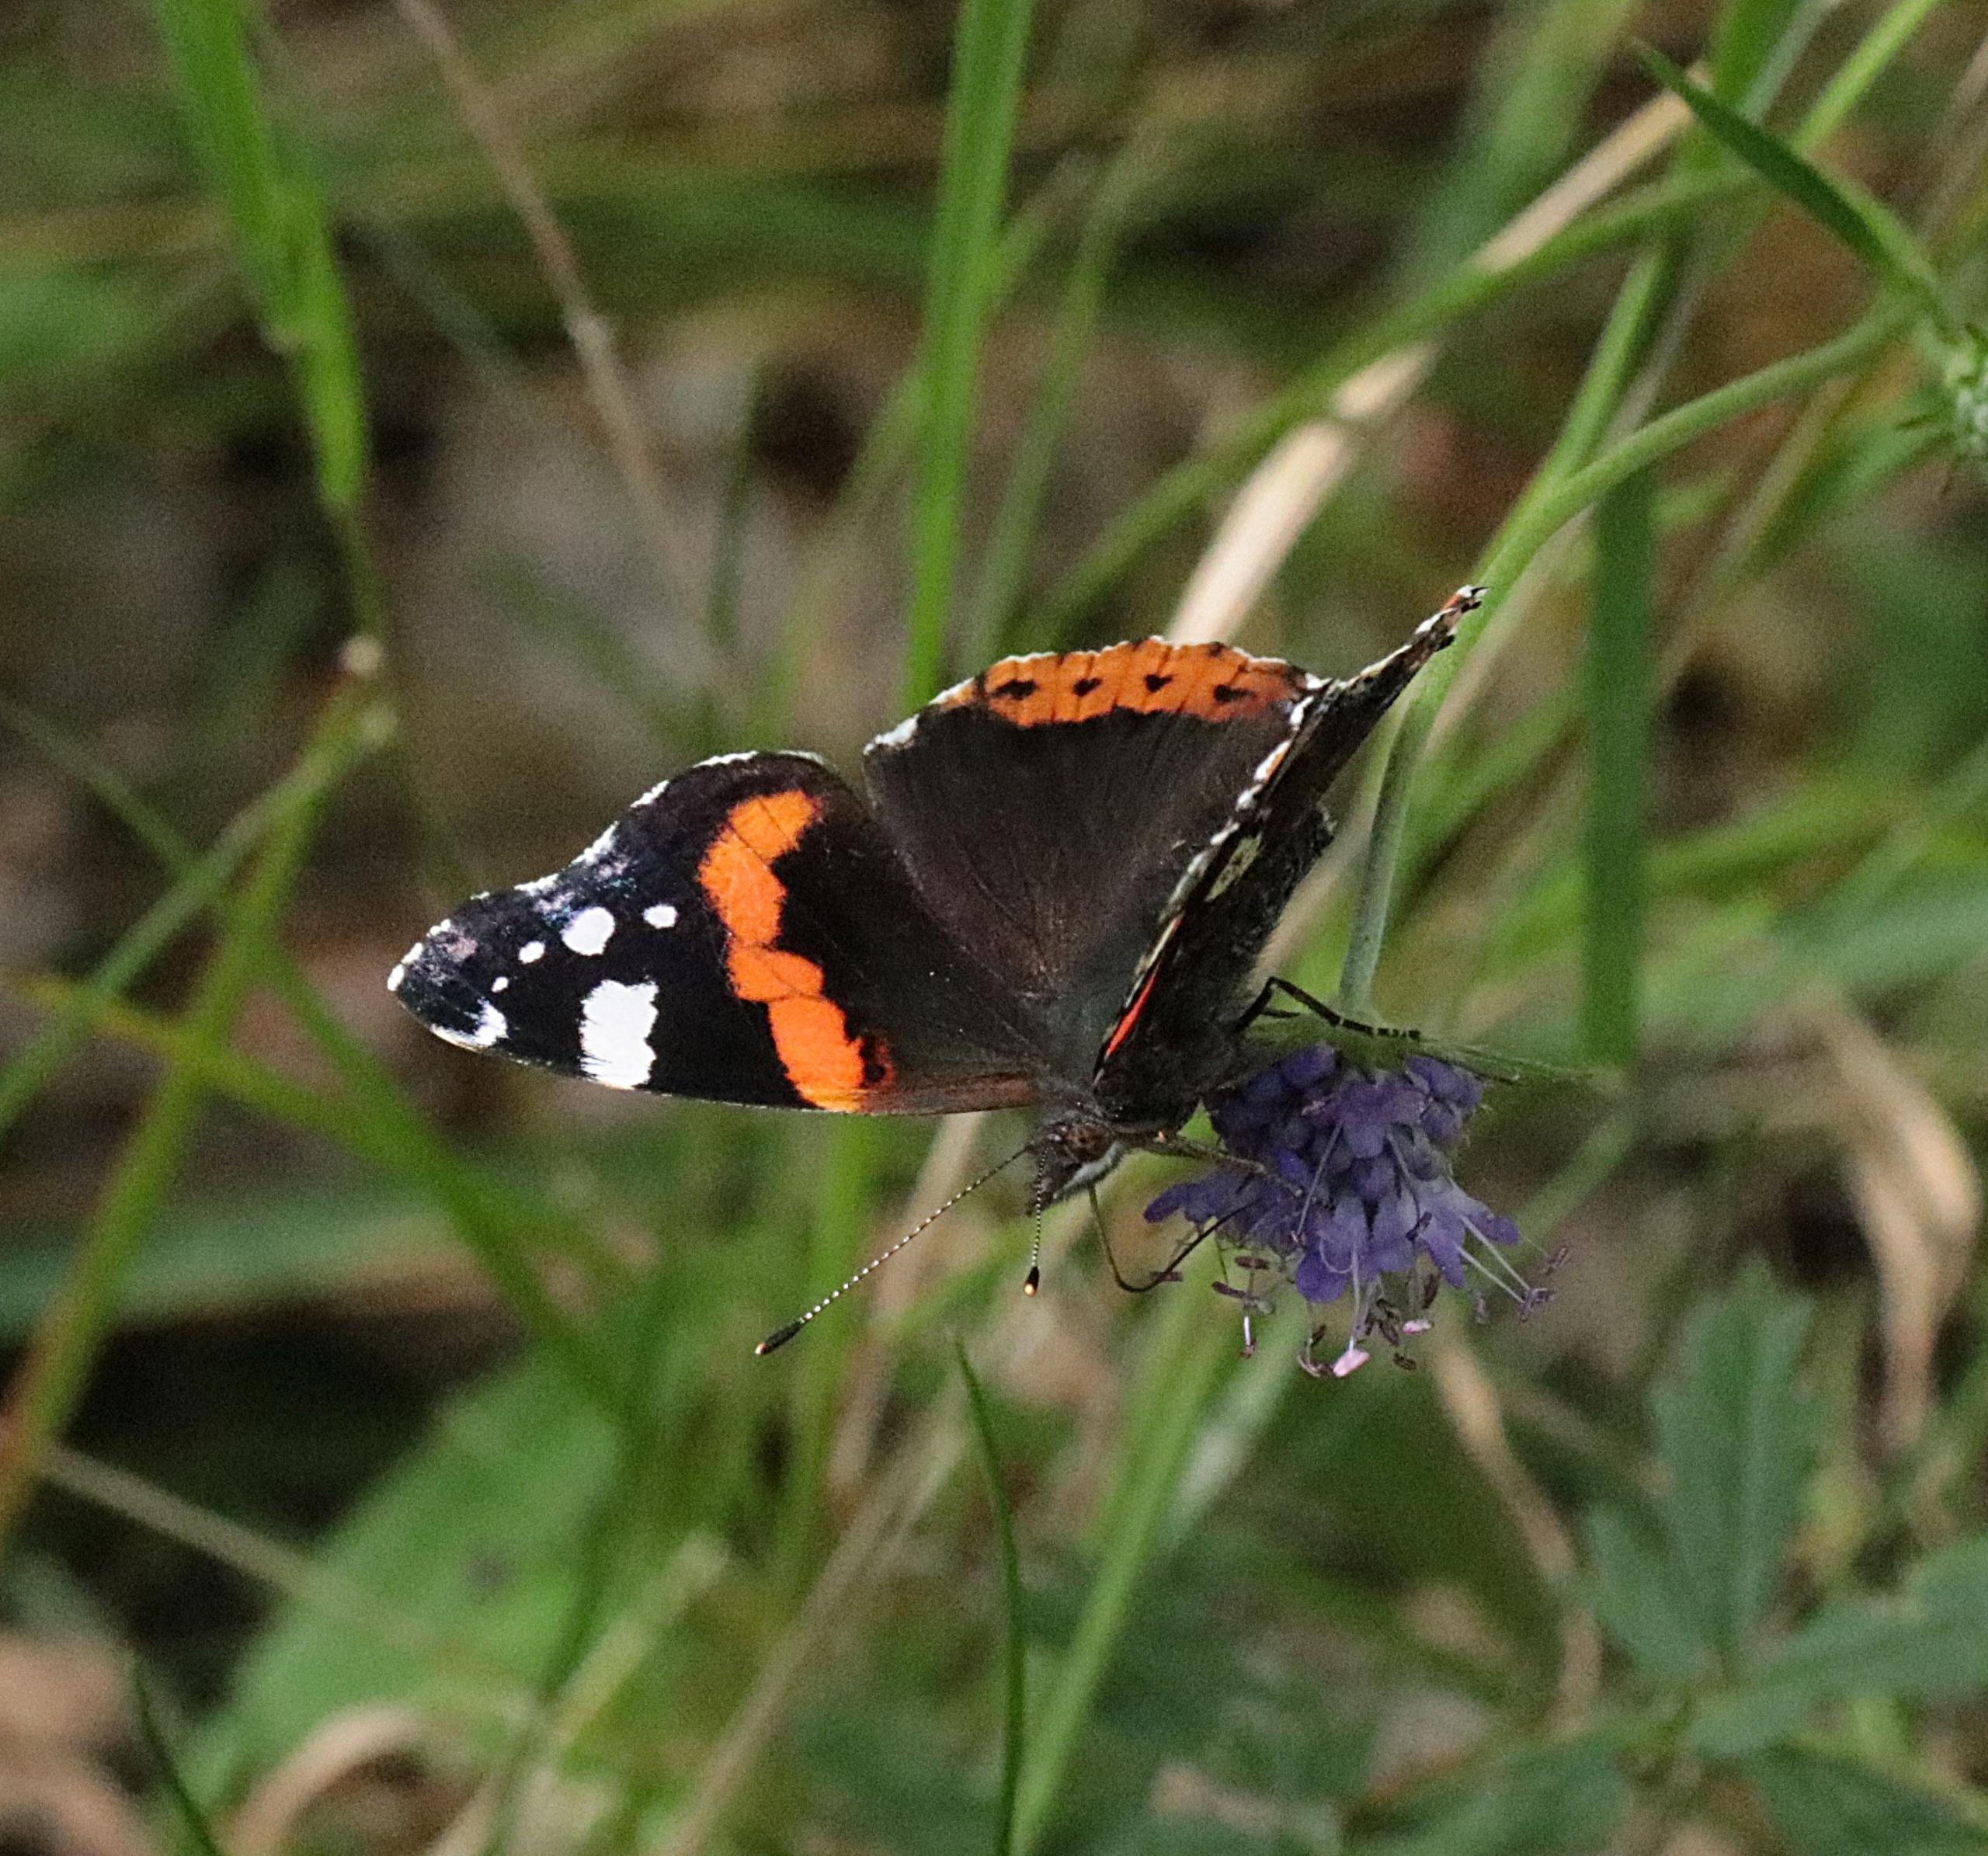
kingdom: Animalia
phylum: Arthropoda
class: Insecta
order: Lepidoptera
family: Nymphalidae
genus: Vanessa
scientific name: Vanessa atalanta
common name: Admiral
